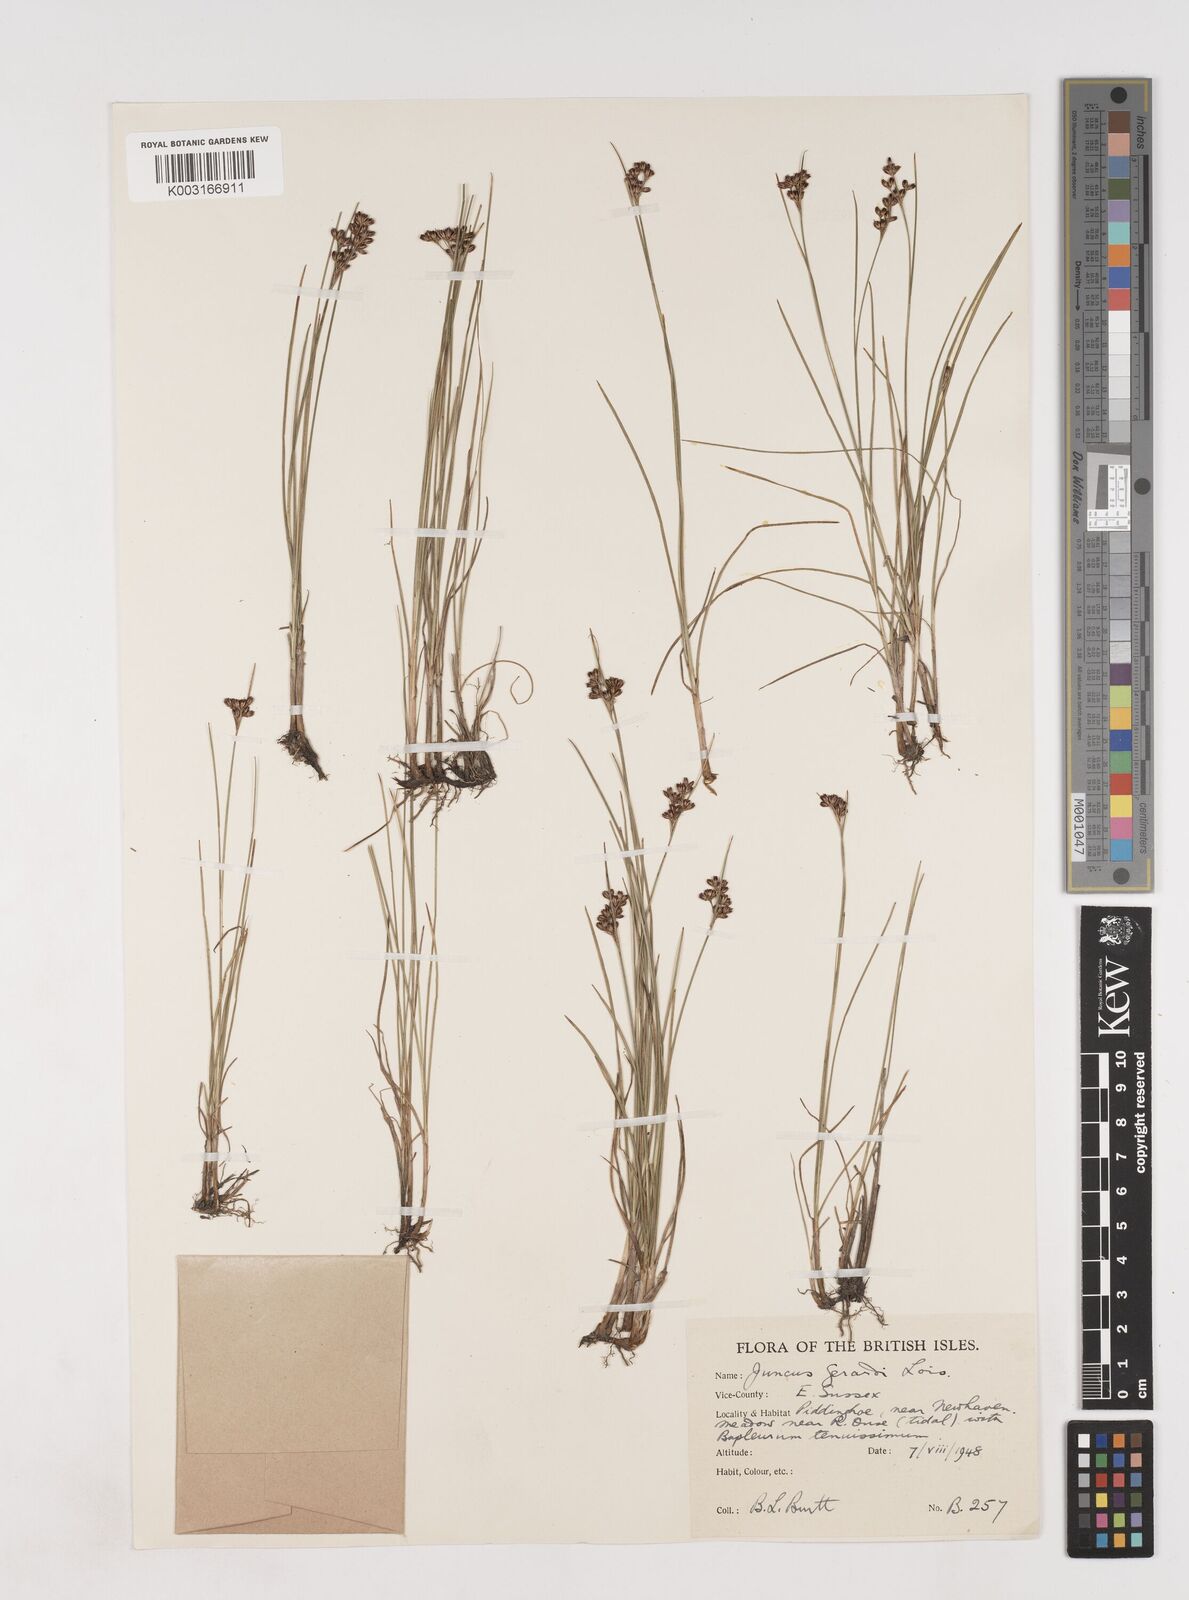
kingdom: Plantae
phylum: Tracheophyta
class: Liliopsida
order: Poales
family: Juncaceae
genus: Juncus
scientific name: Juncus gerardi
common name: Saltmarsh rush
